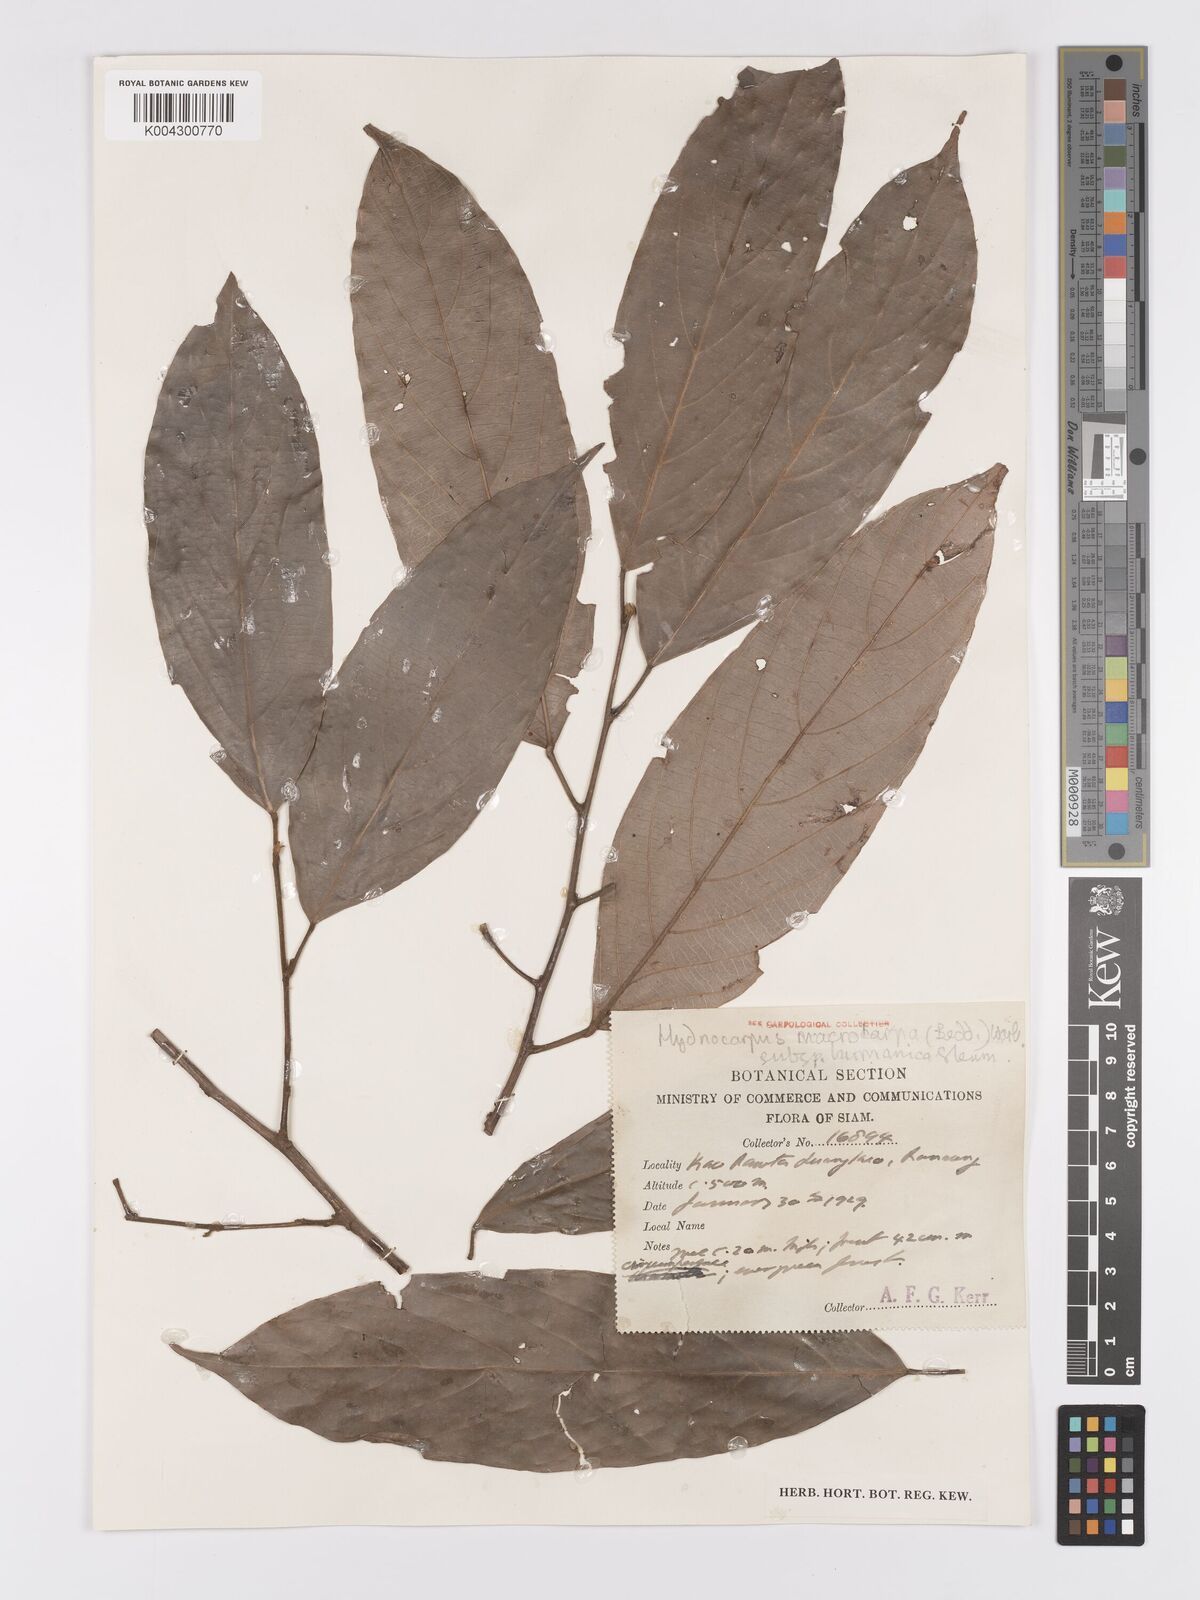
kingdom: Plantae
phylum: Tracheophyta
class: Magnoliopsida
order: Malpighiales
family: Achariaceae
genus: Hydnocarpus
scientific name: Hydnocarpus macrocarpus
